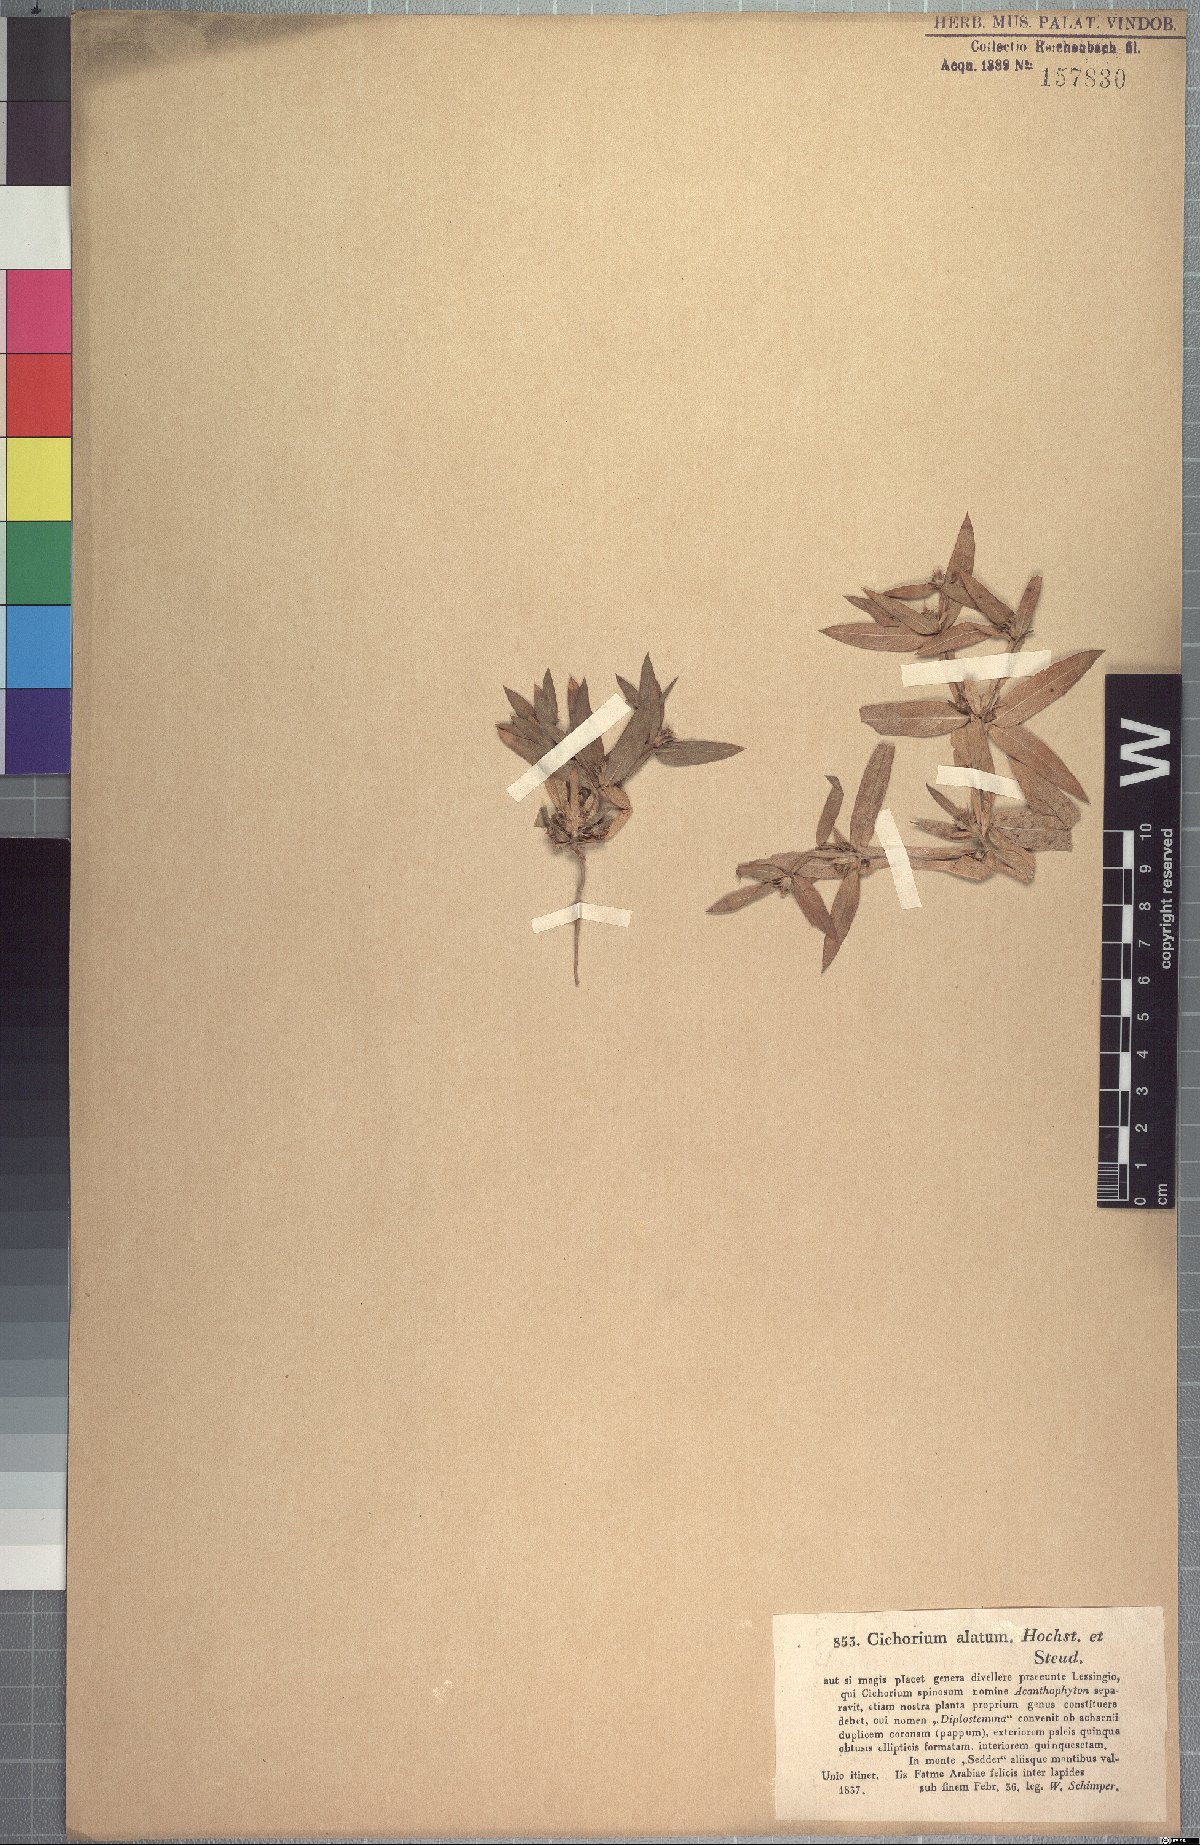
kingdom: Plantae
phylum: Tracheophyta
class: Magnoliopsida
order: Asterales
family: Asteraceae
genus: Geigeria
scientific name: Geigeria alata
